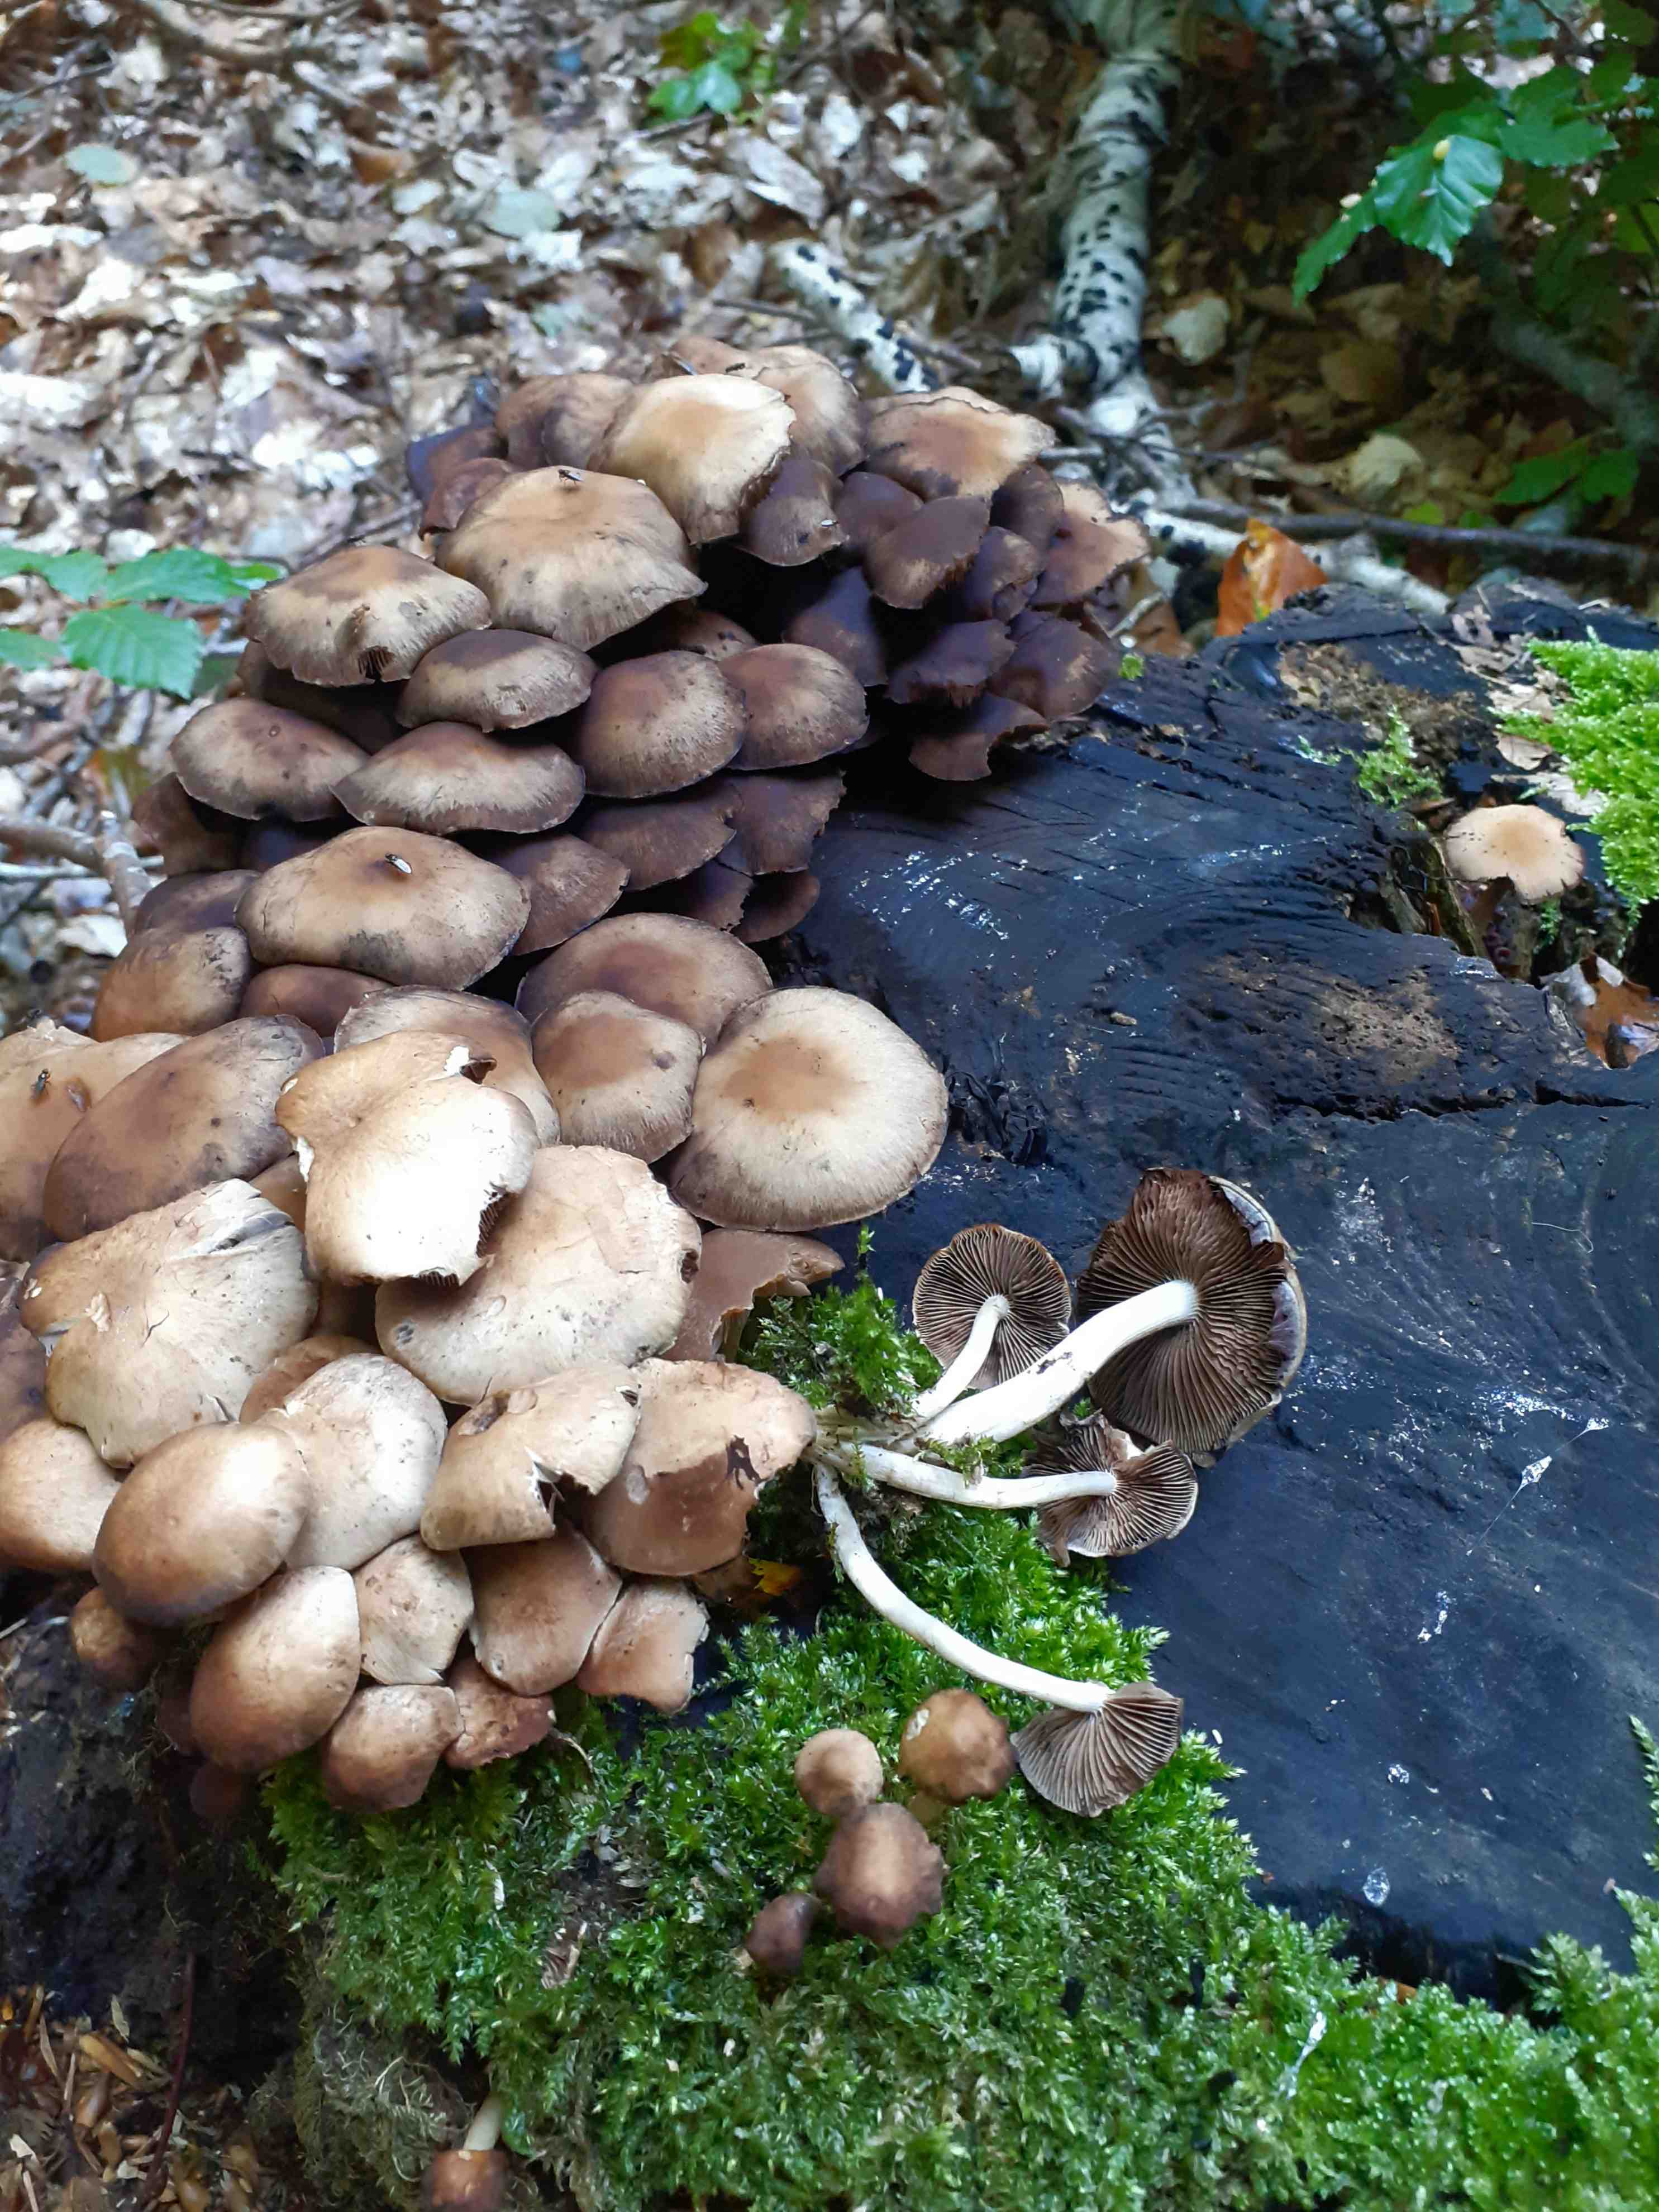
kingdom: Fungi
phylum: Basidiomycota
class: Agaricomycetes
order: Agaricales
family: Psathyrellaceae
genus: Psathyrella
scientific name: Psathyrella piluliformis
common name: lysstokket mørkhat
